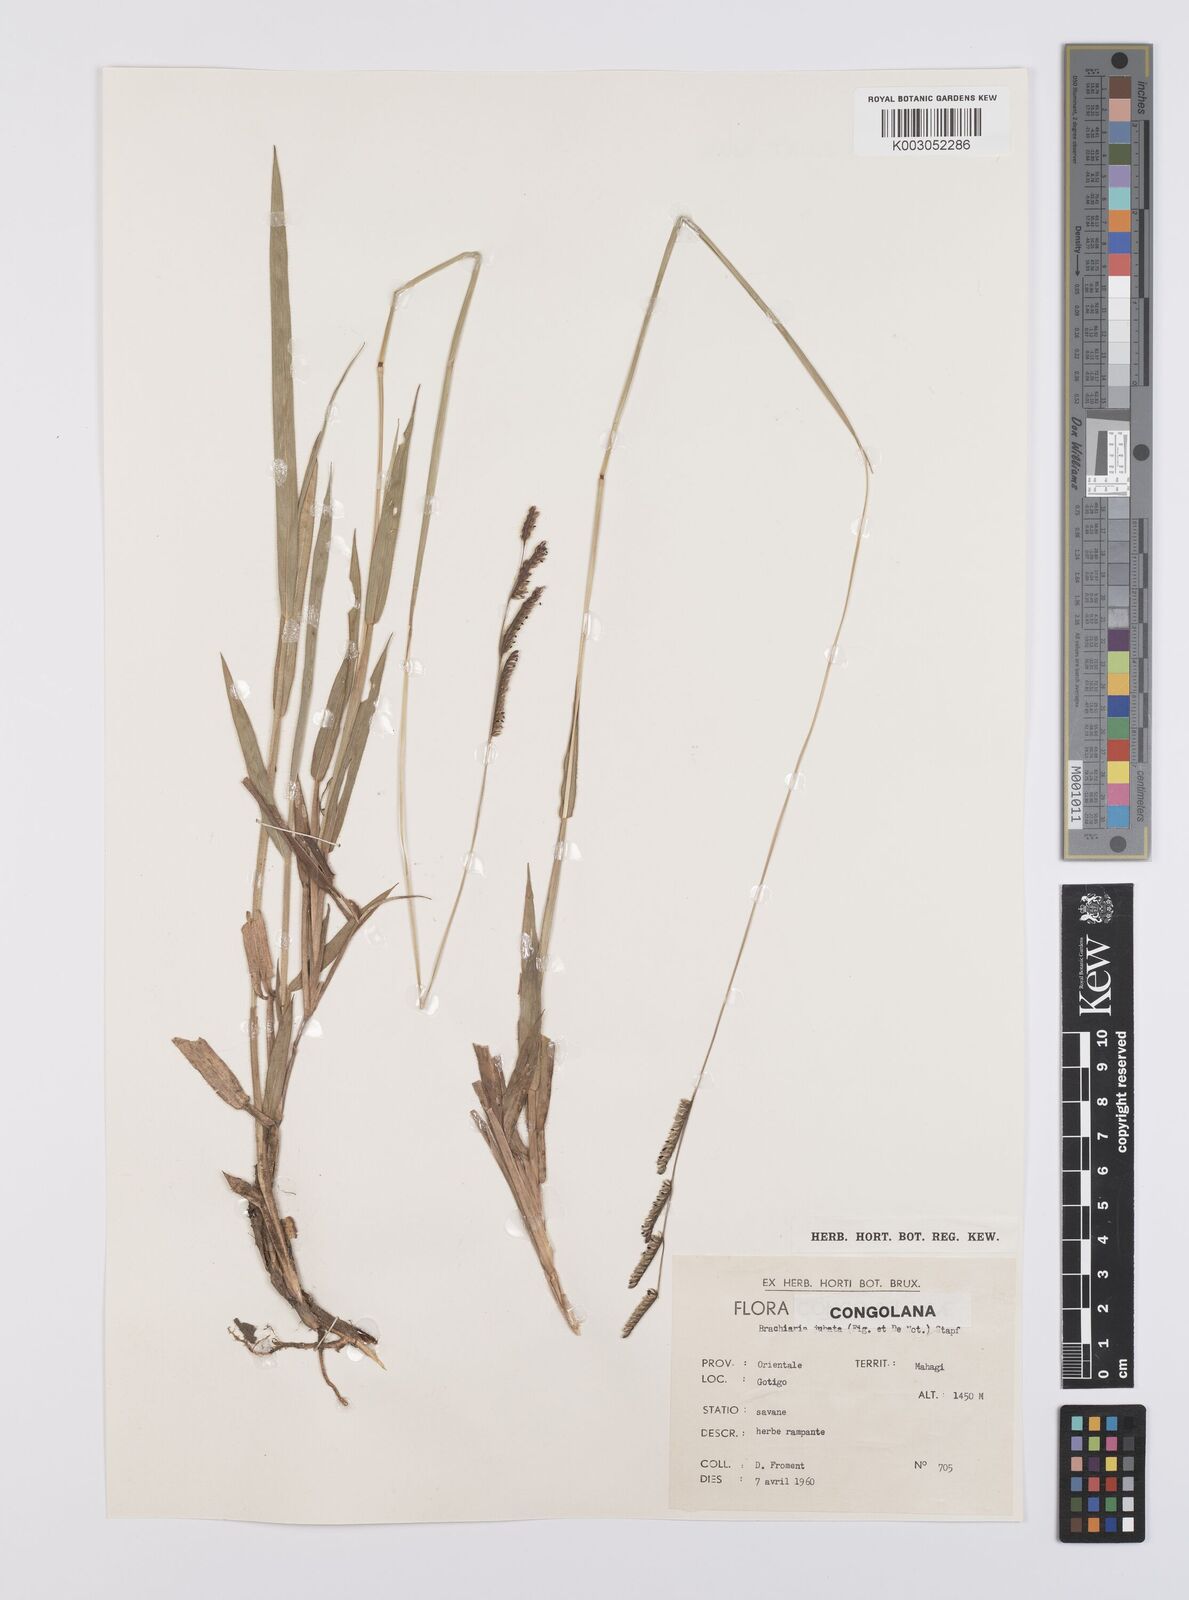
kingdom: Plantae
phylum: Tracheophyta
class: Liliopsida
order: Poales
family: Poaceae
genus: Urochloa
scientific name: Urochloa jubata
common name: Buffalograss
